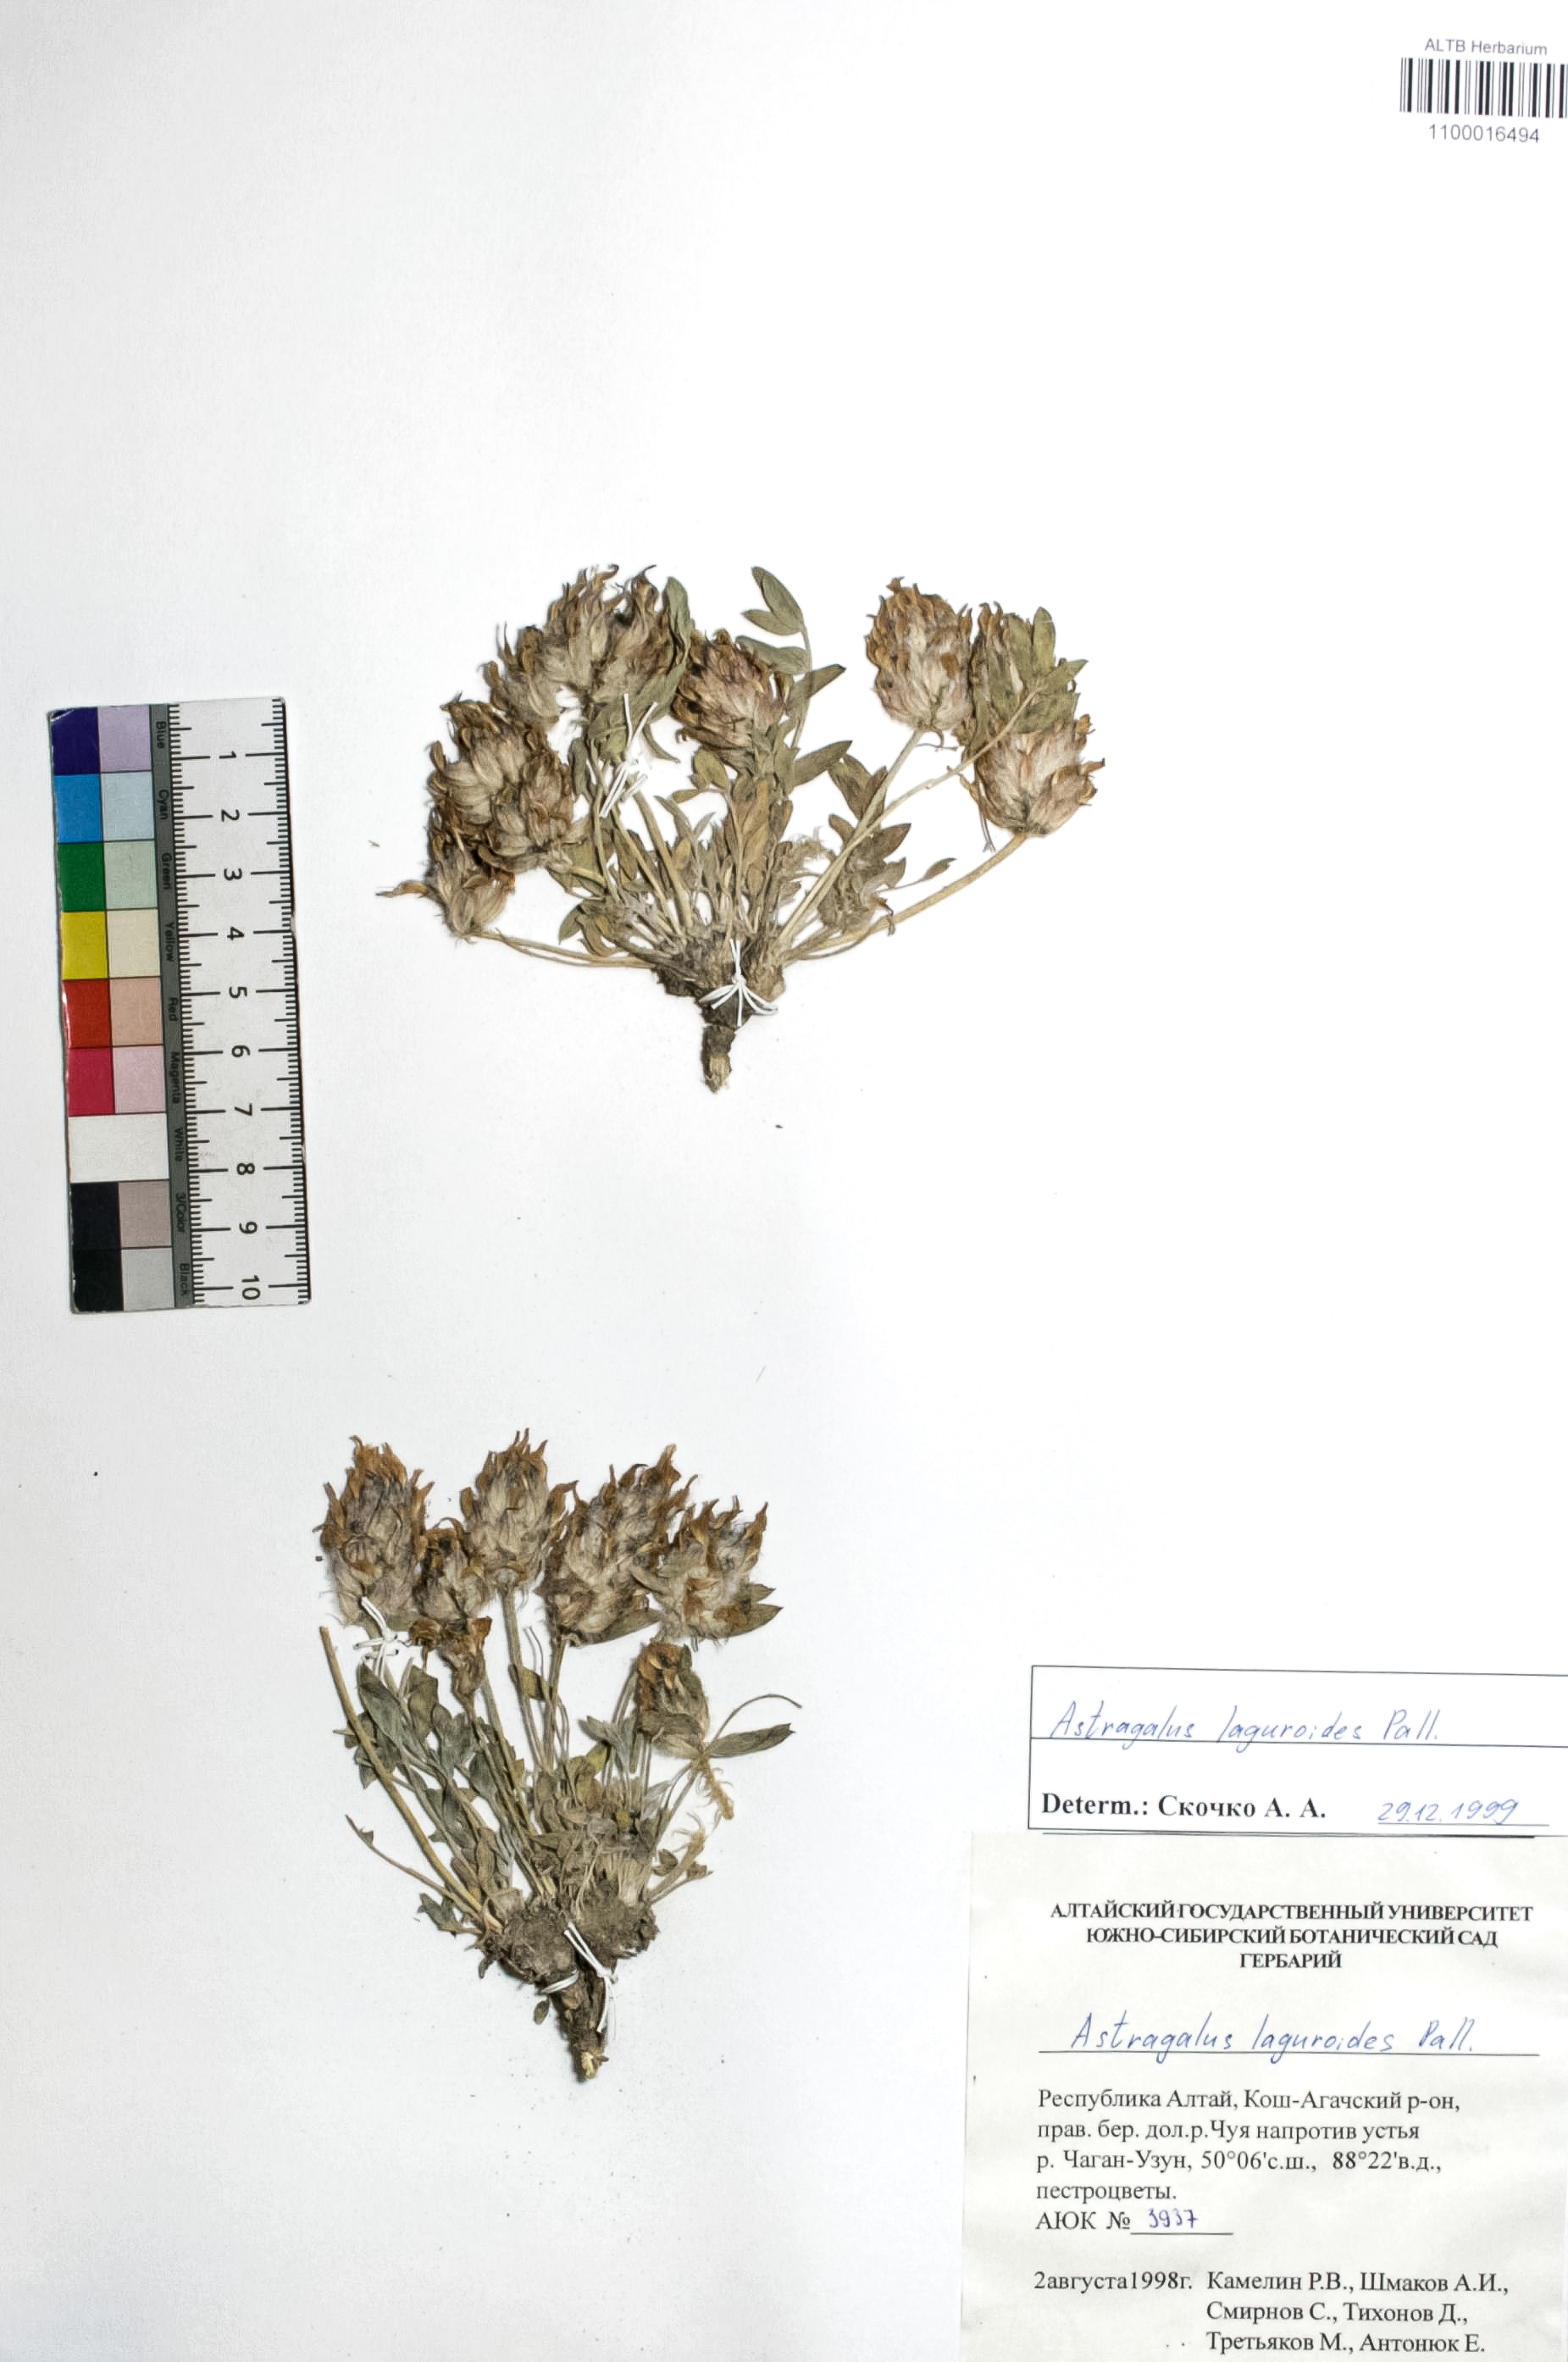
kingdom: Plantae
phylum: Tracheophyta
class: Magnoliopsida
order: Fabales
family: Fabaceae
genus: Astragalus
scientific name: Astragalus laguroides
